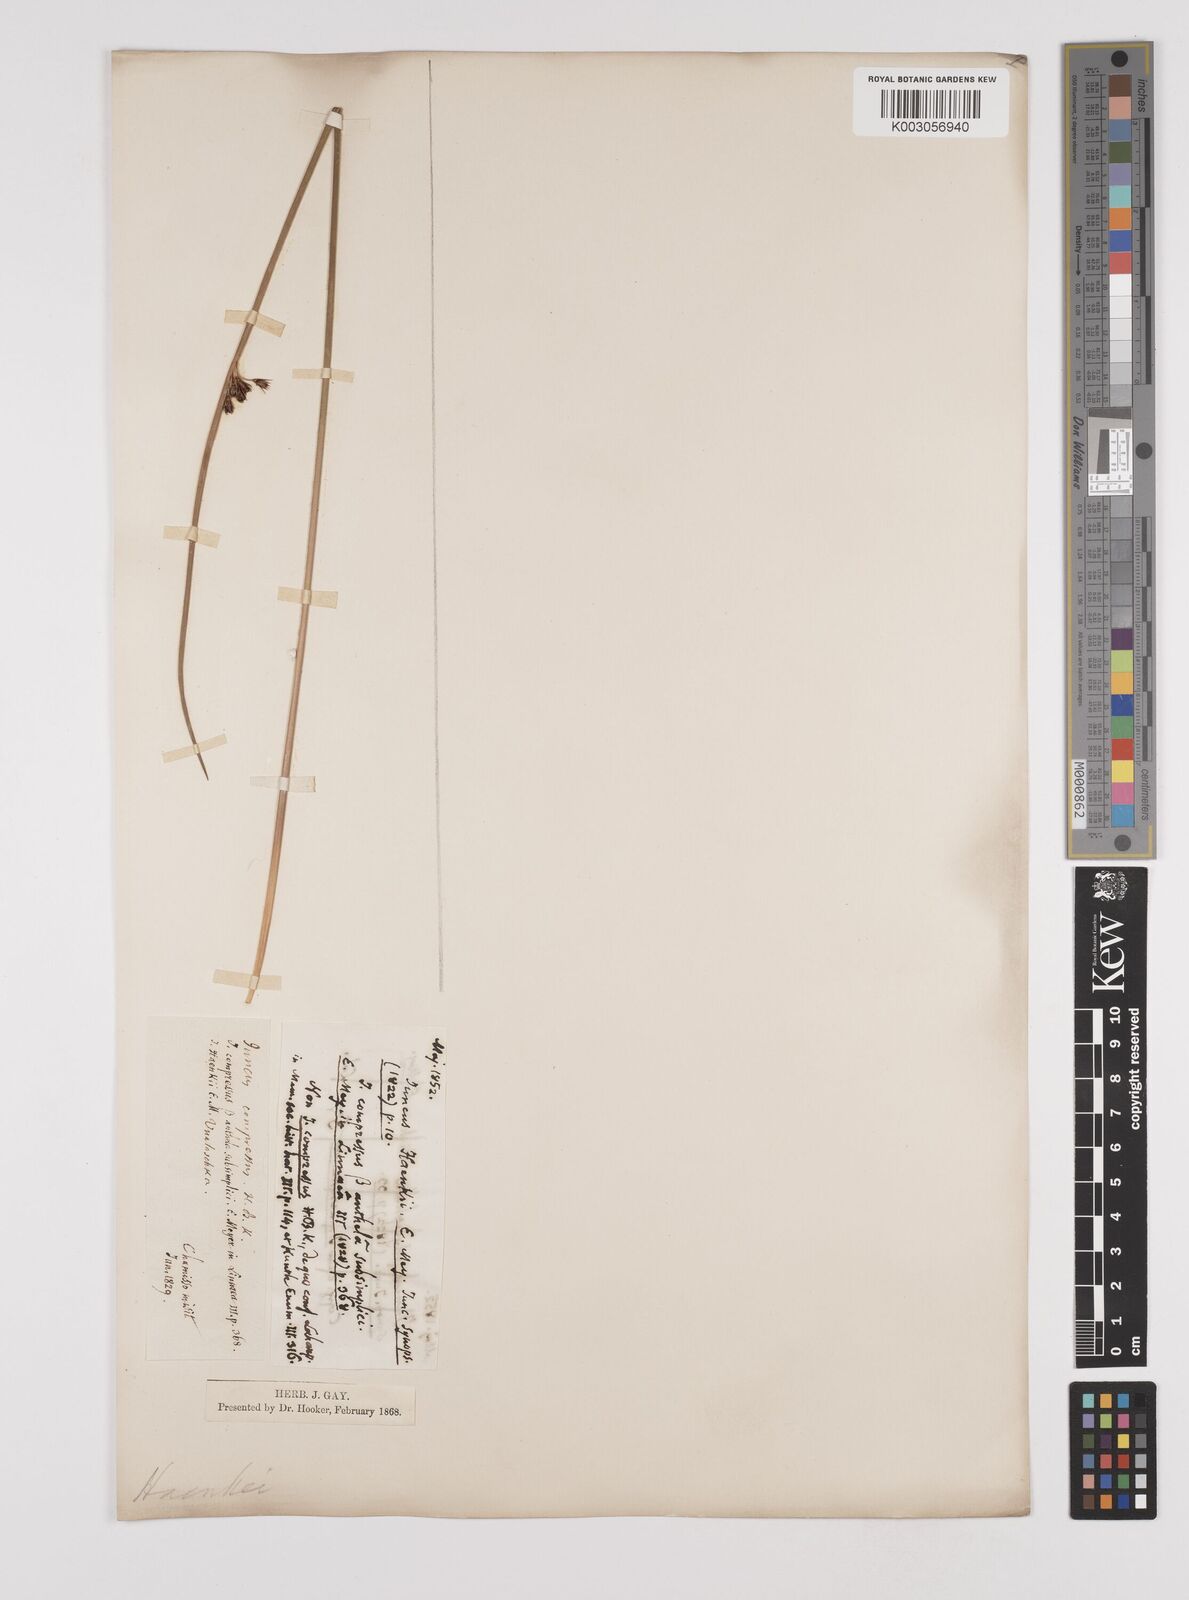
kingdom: Plantae
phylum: Tracheophyta
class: Liliopsida
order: Poales
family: Juncaceae
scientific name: Juncaceae
